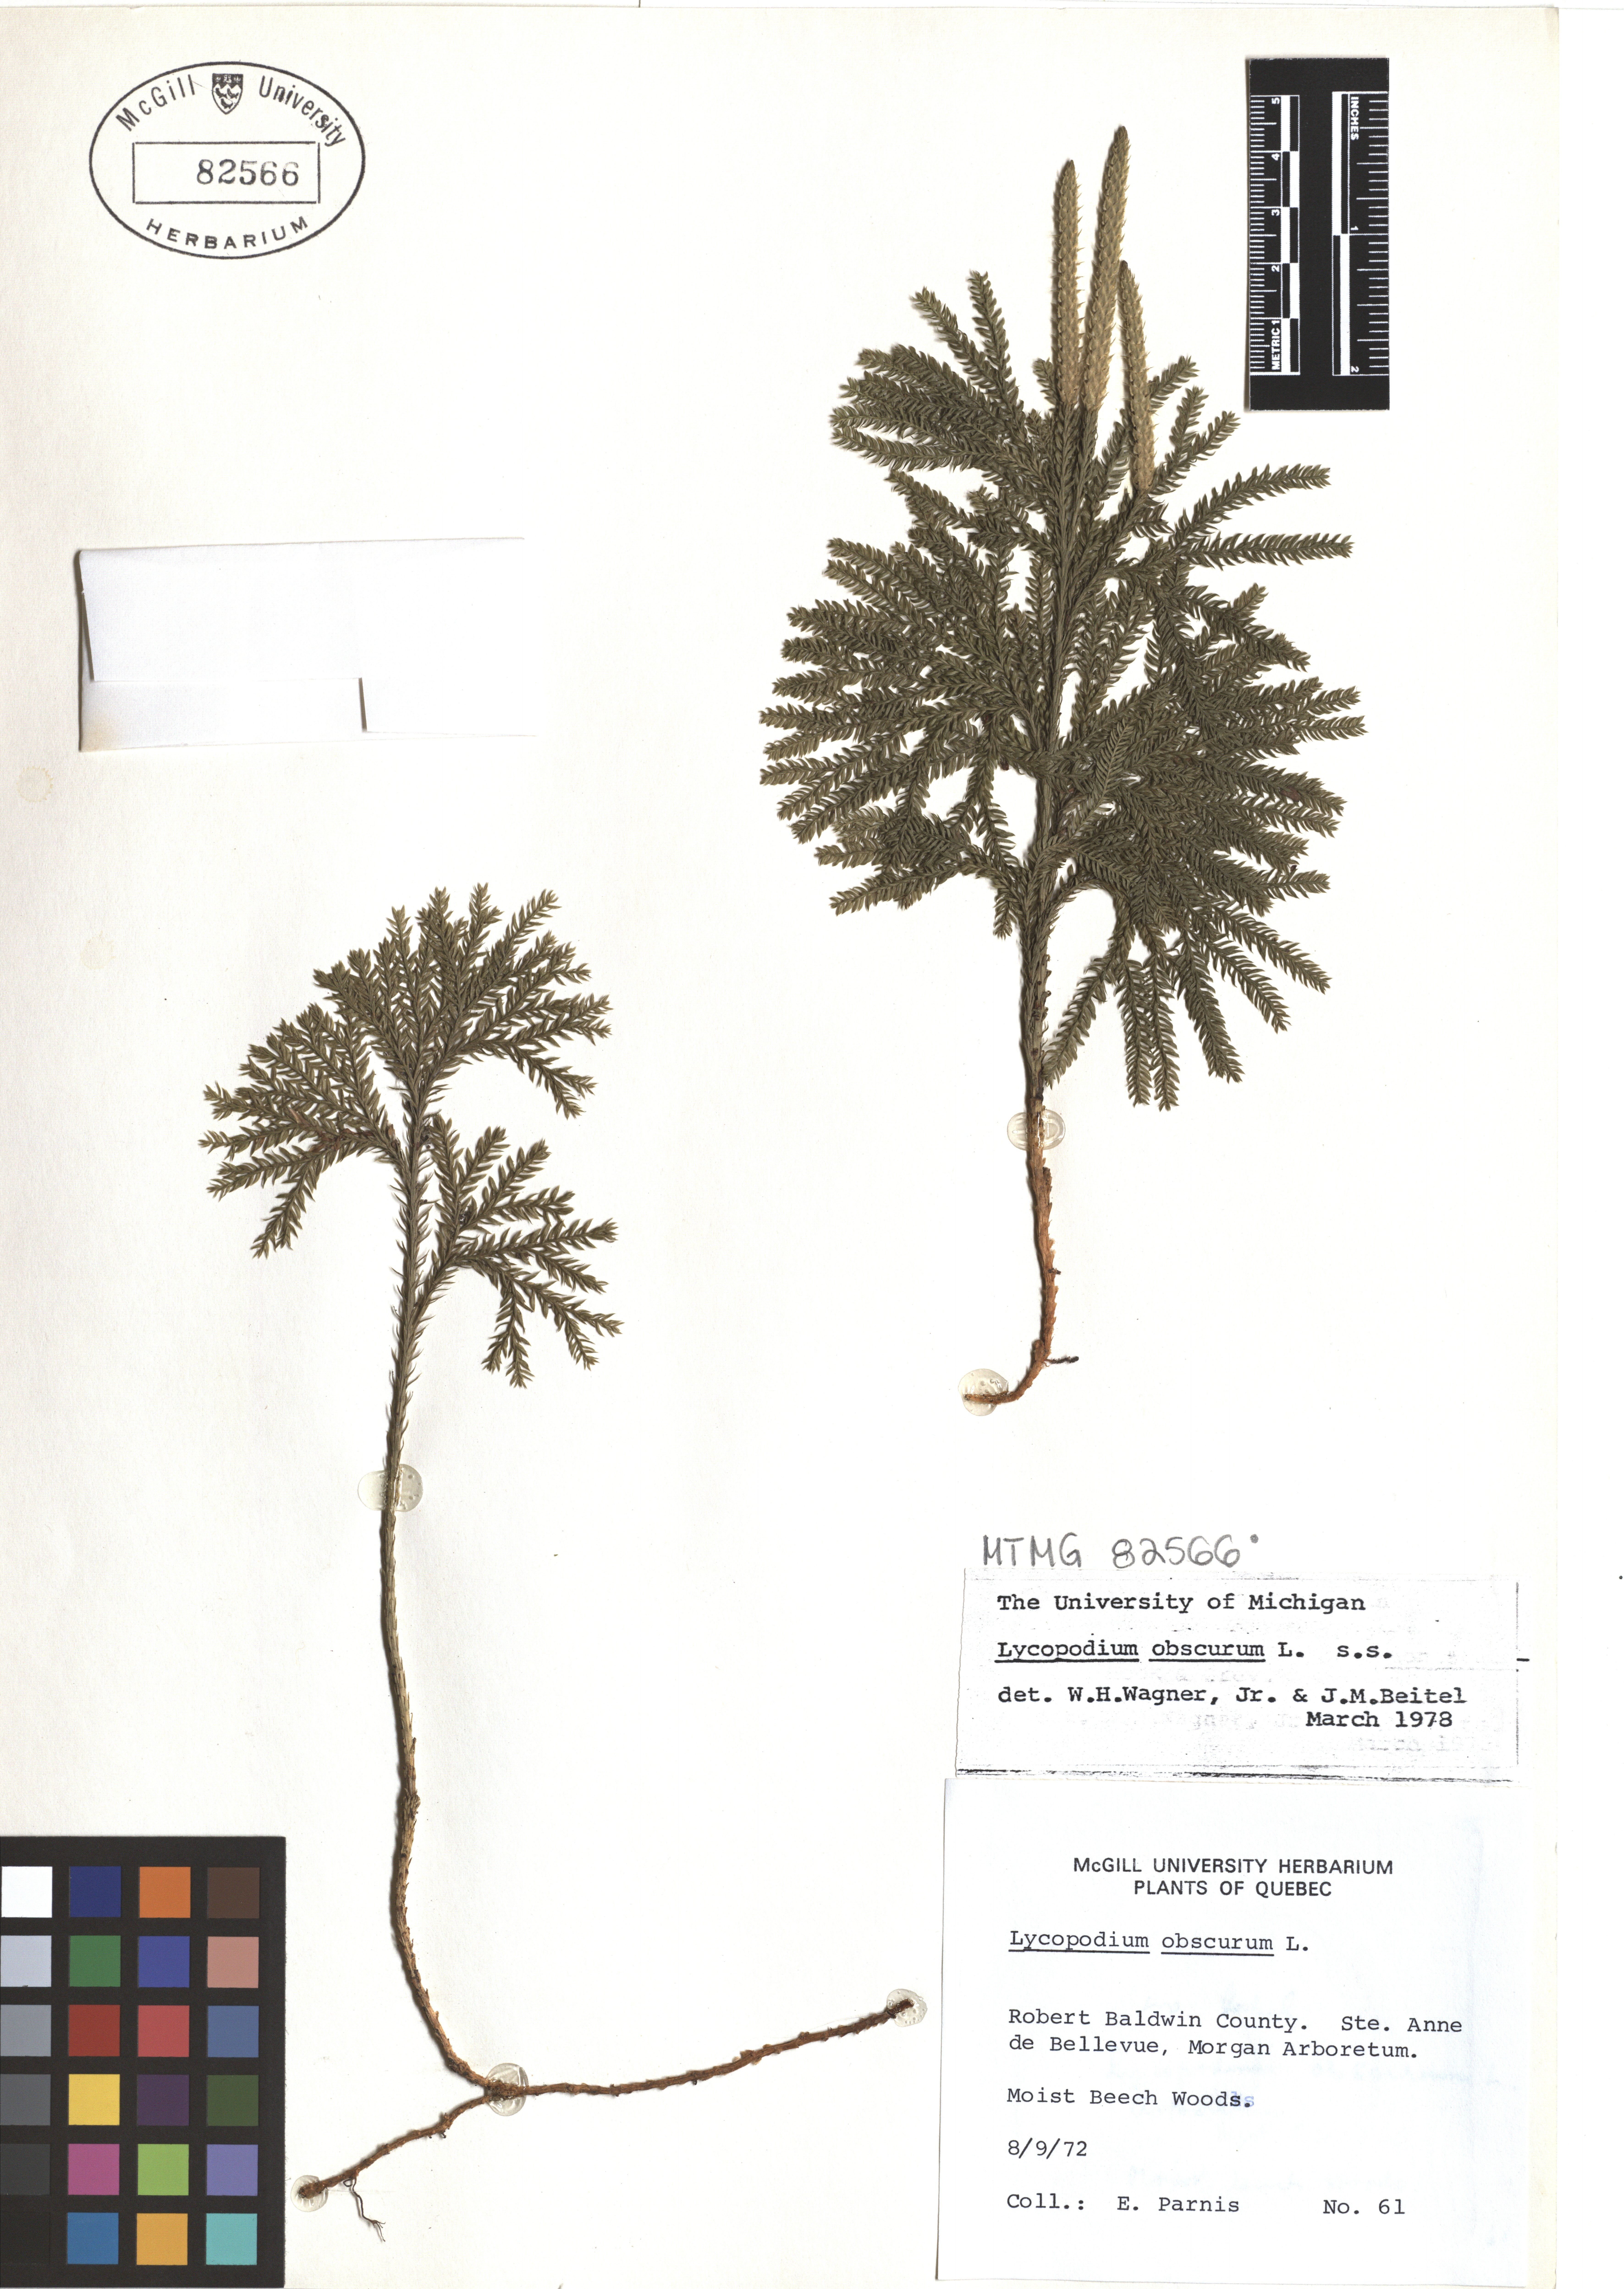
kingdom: Plantae
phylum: Tracheophyta
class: Lycopodiopsida
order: Lycopodiales
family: Lycopodiaceae
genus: Dendrolycopodium
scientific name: Dendrolycopodium obscurum
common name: Common ground-pine
